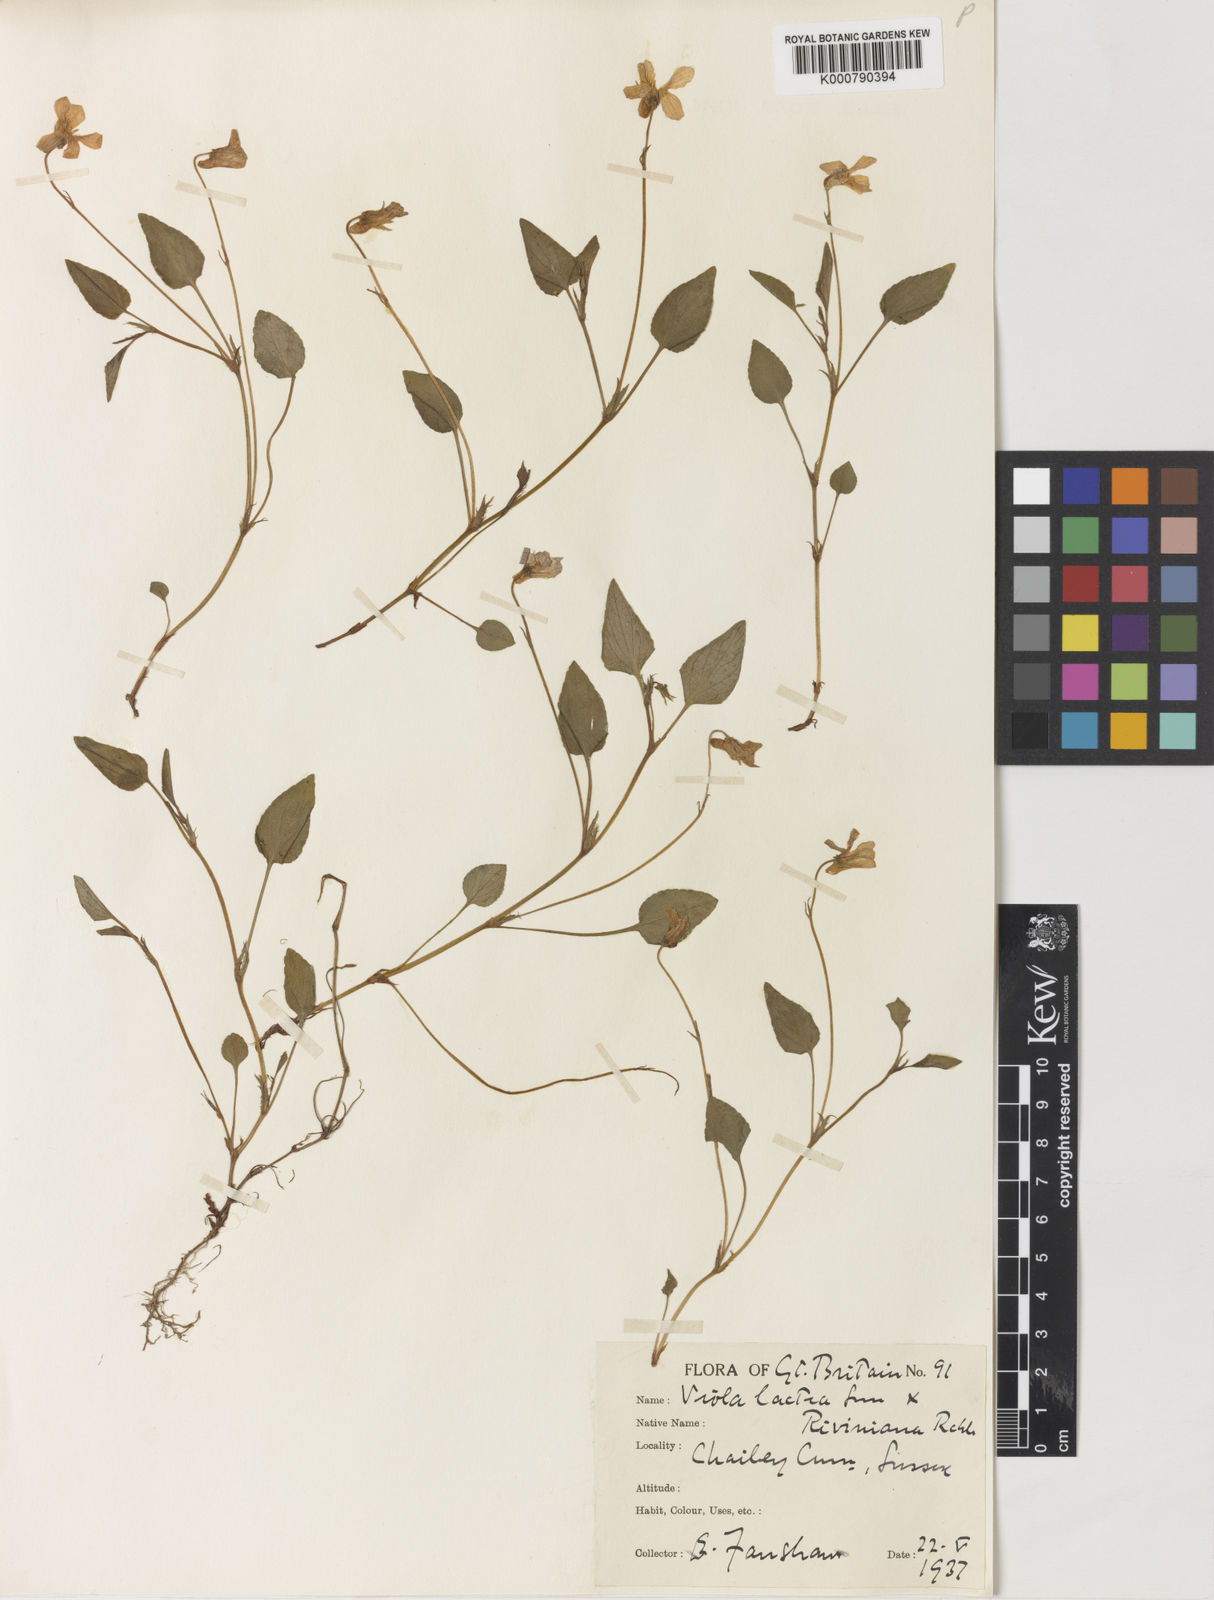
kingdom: Plantae
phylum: Tracheophyta
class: Magnoliopsida
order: Malpighiales
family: Violaceae
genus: Viola
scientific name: Viola lactea
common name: Pale dog-violet
